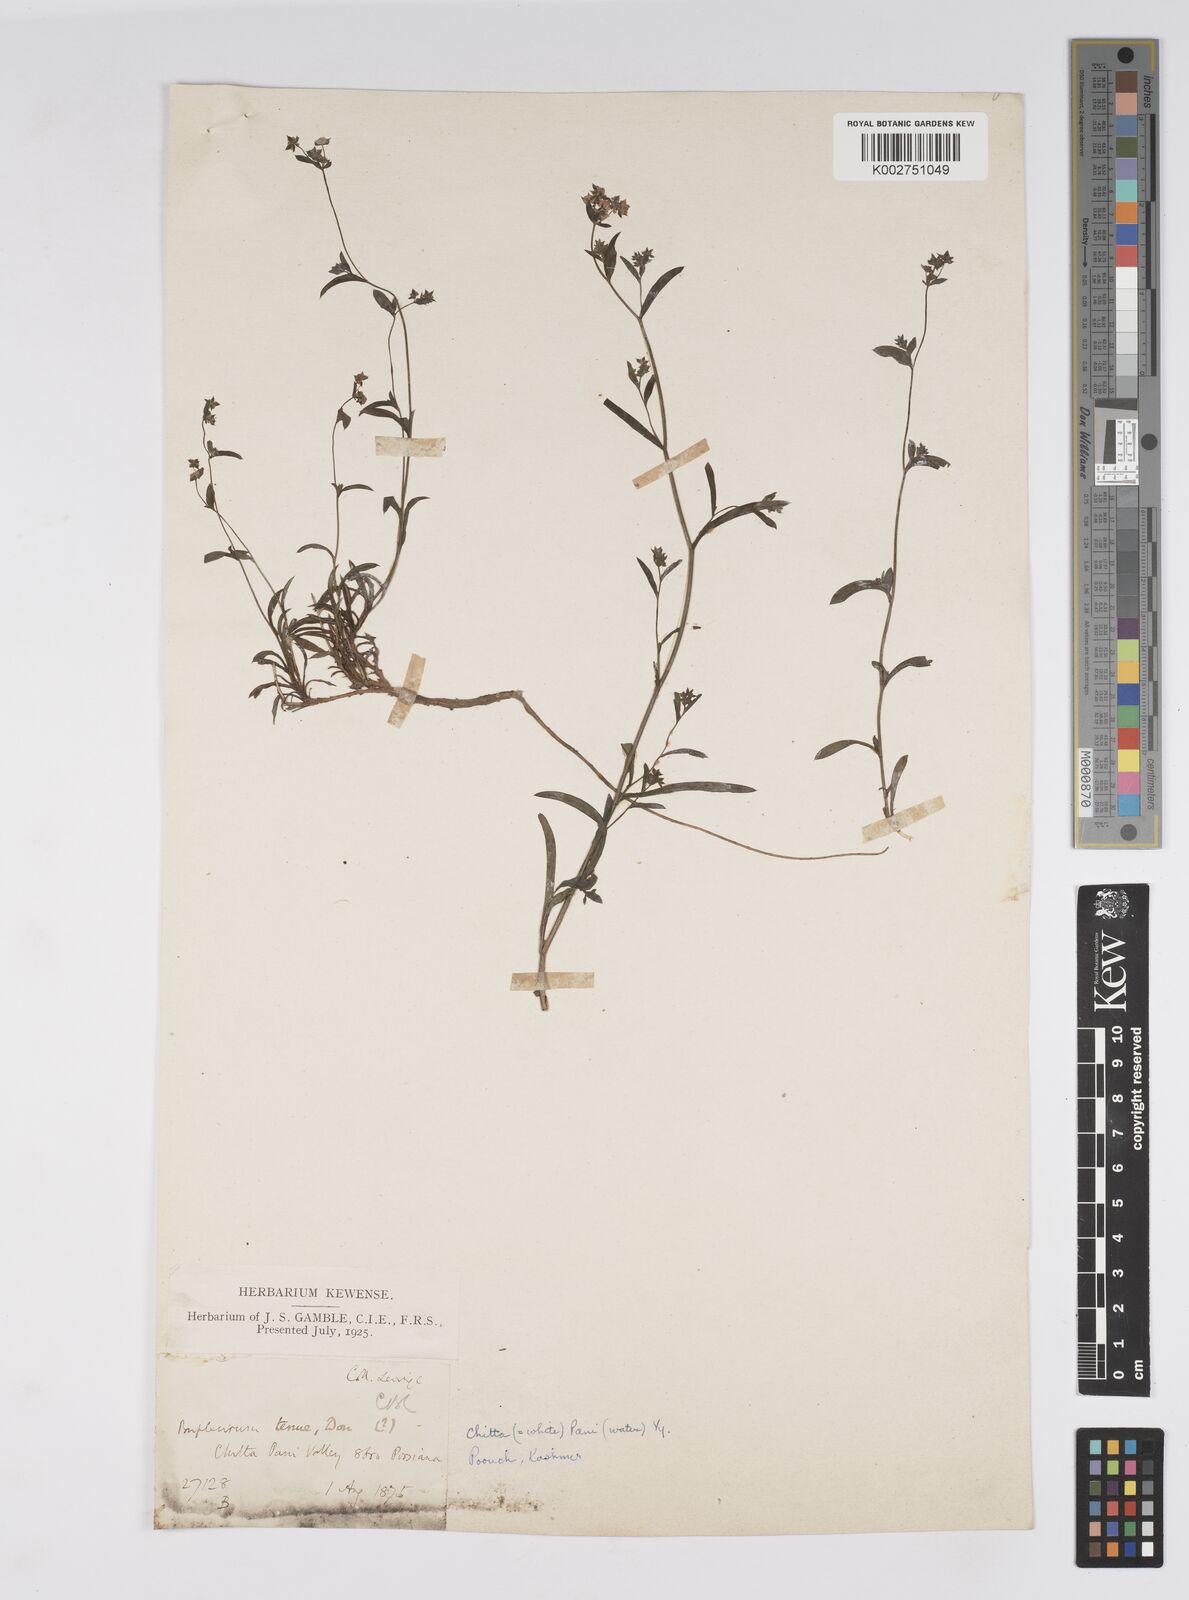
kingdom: Plantae
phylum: Tracheophyta
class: Magnoliopsida
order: Apiales
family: Apiaceae
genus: Bupleurum
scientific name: Bupleurum gracillimum
